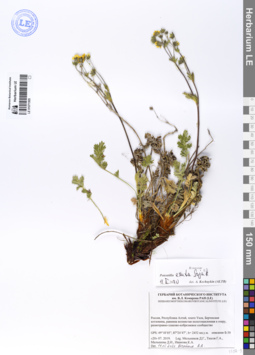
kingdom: Plantae
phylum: Tracheophyta
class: Magnoliopsida
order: Rosales
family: Rosaceae
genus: Potentilla
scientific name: Potentilla exuta
